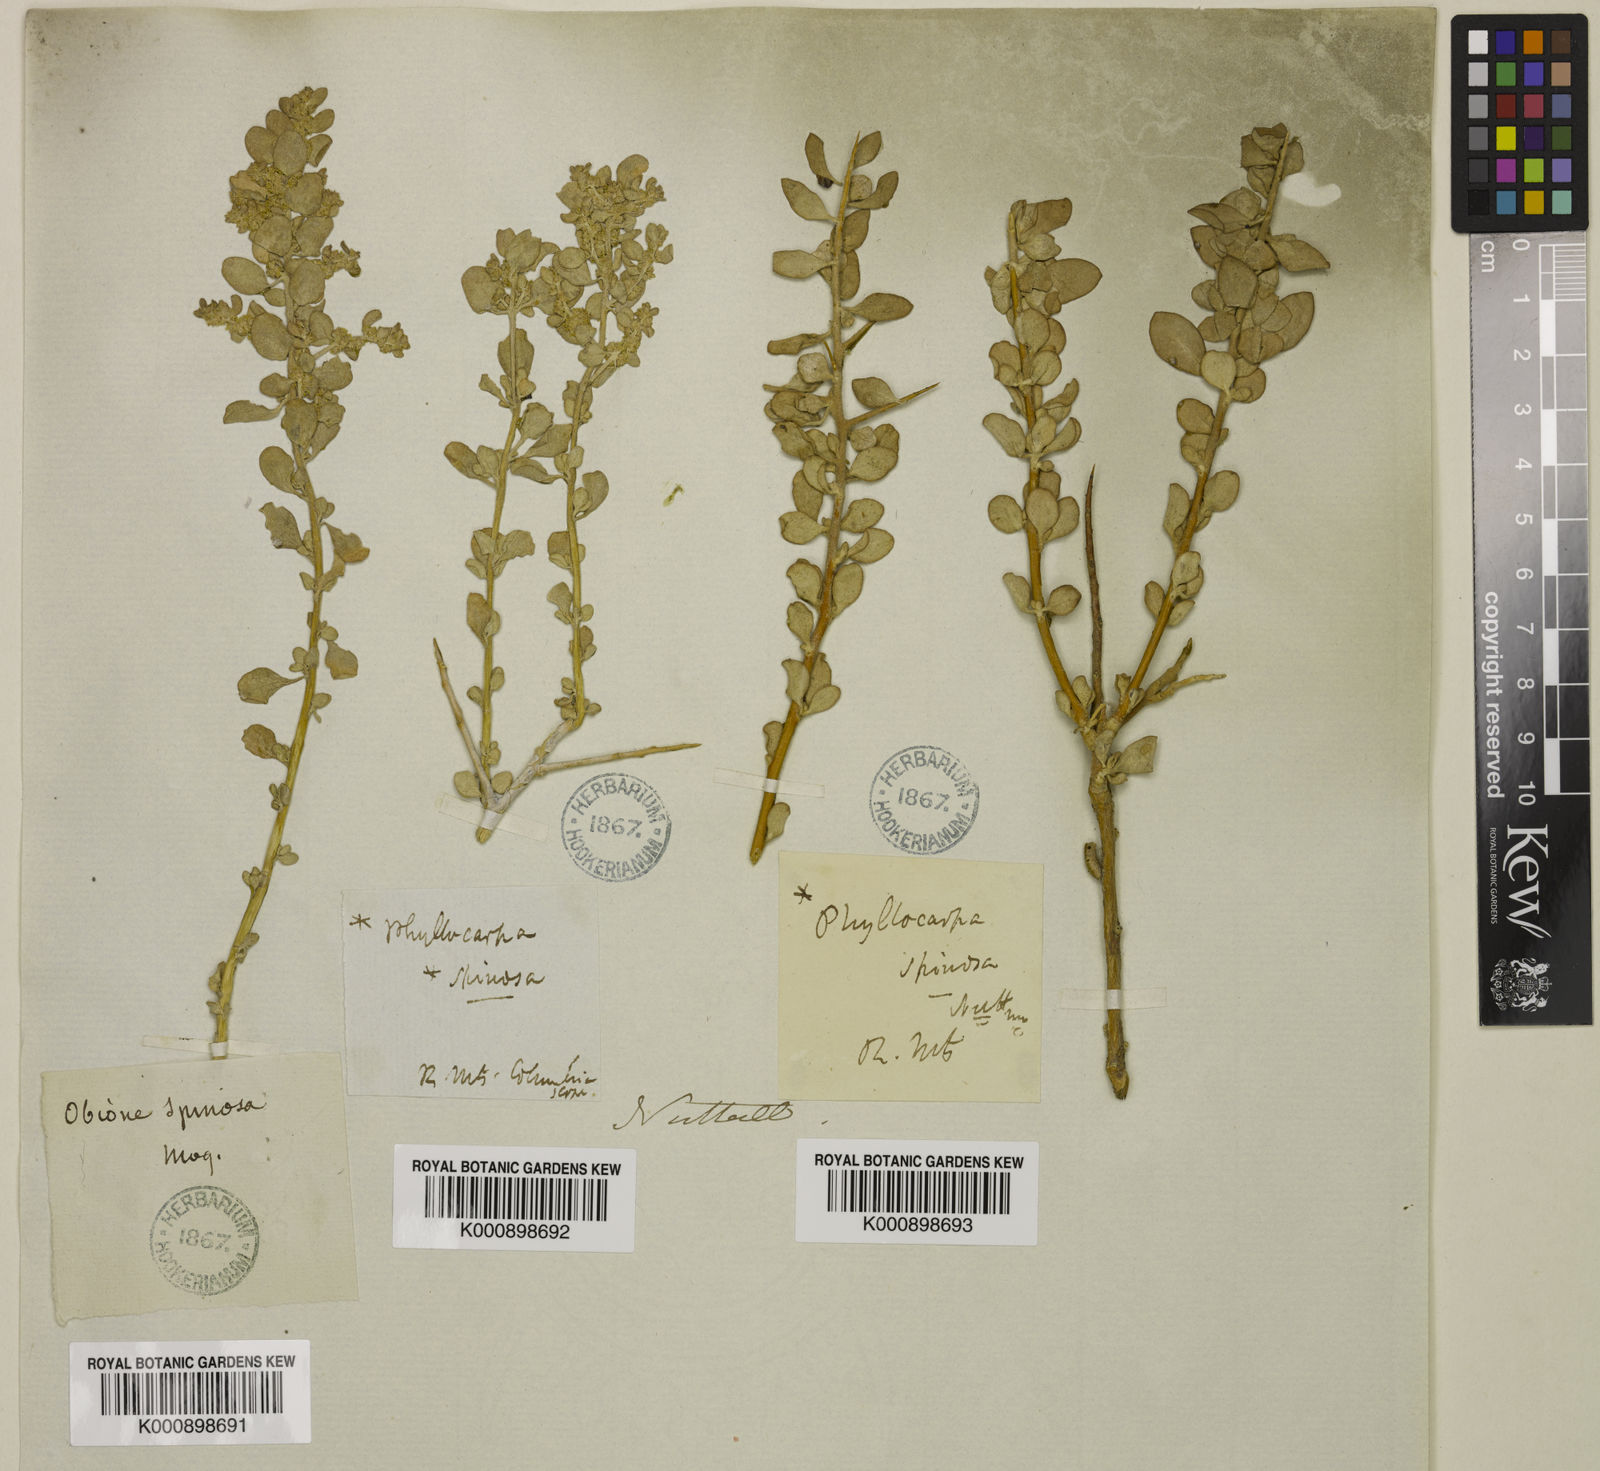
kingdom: Plantae
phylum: Tracheophyta
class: Magnoliopsida
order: Caryophyllales
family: Amaranthaceae
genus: Atriplex
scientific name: Atriplex
